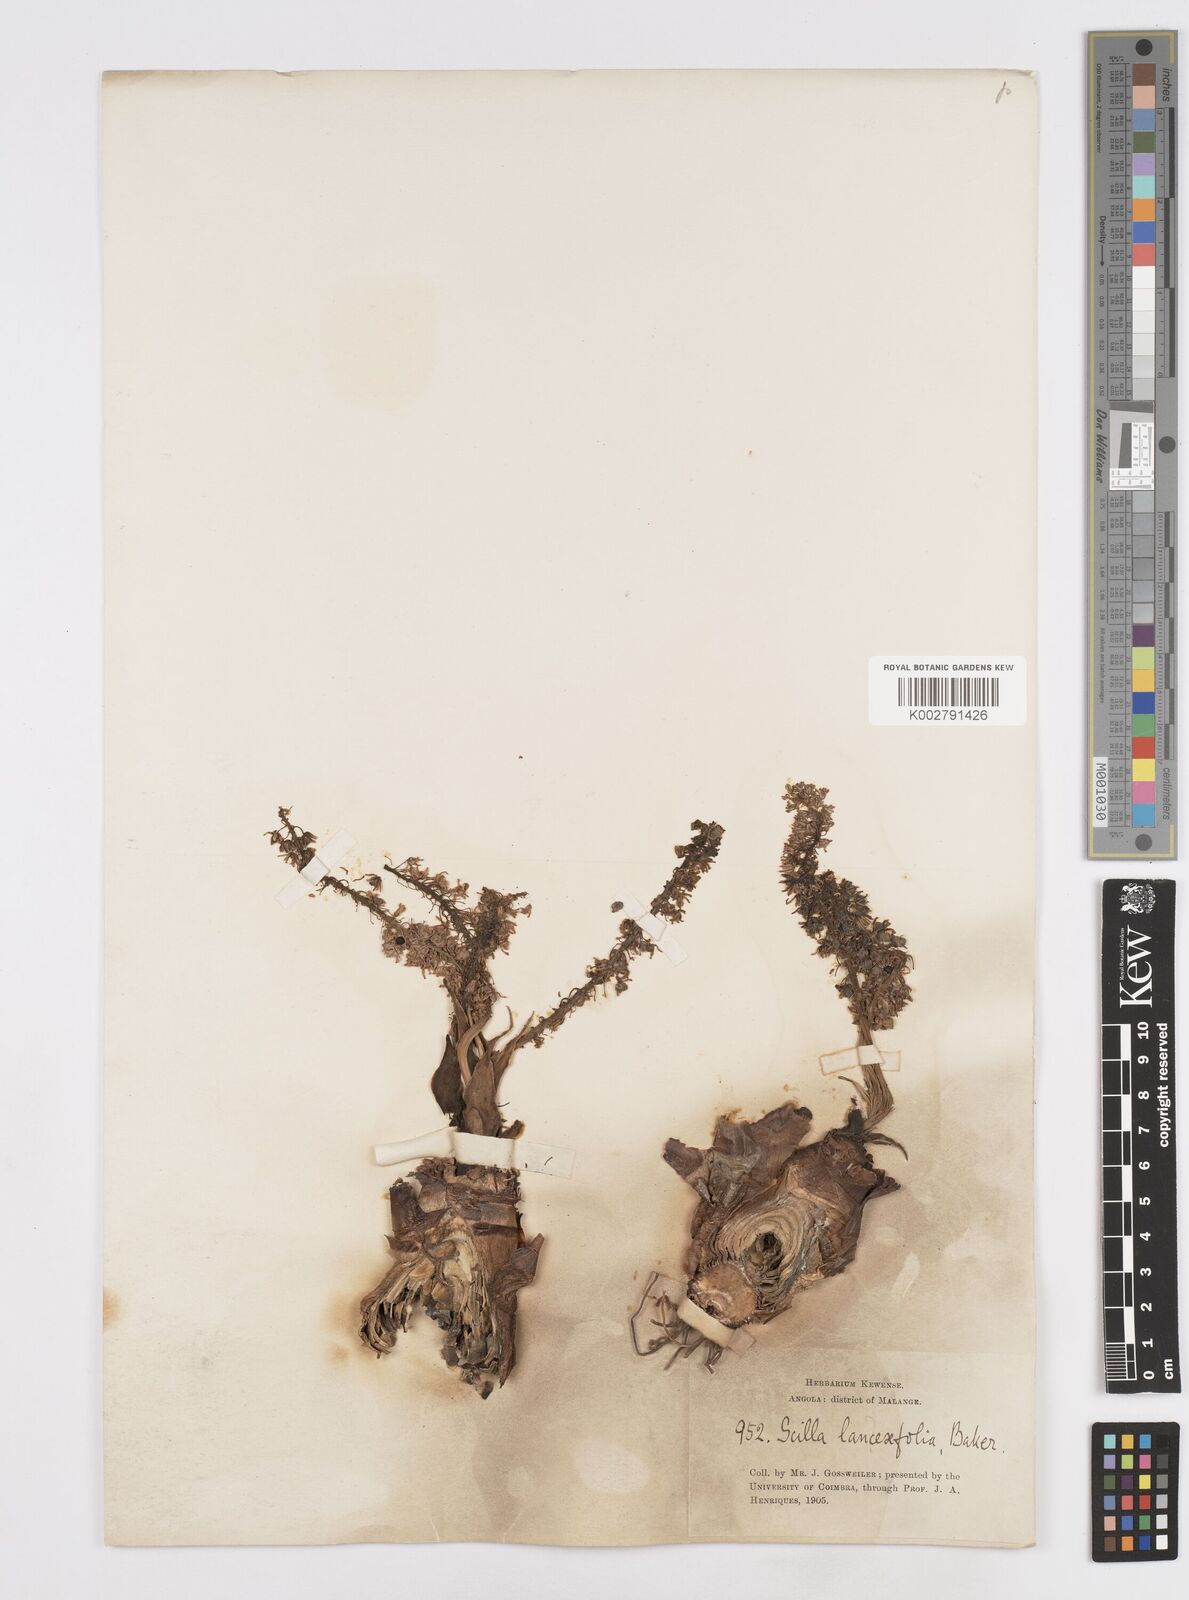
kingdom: Plantae
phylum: Tracheophyta
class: Liliopsida
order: Asparagales
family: Asparagaceae
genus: Ledebouria
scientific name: Ledebouria revoluta
